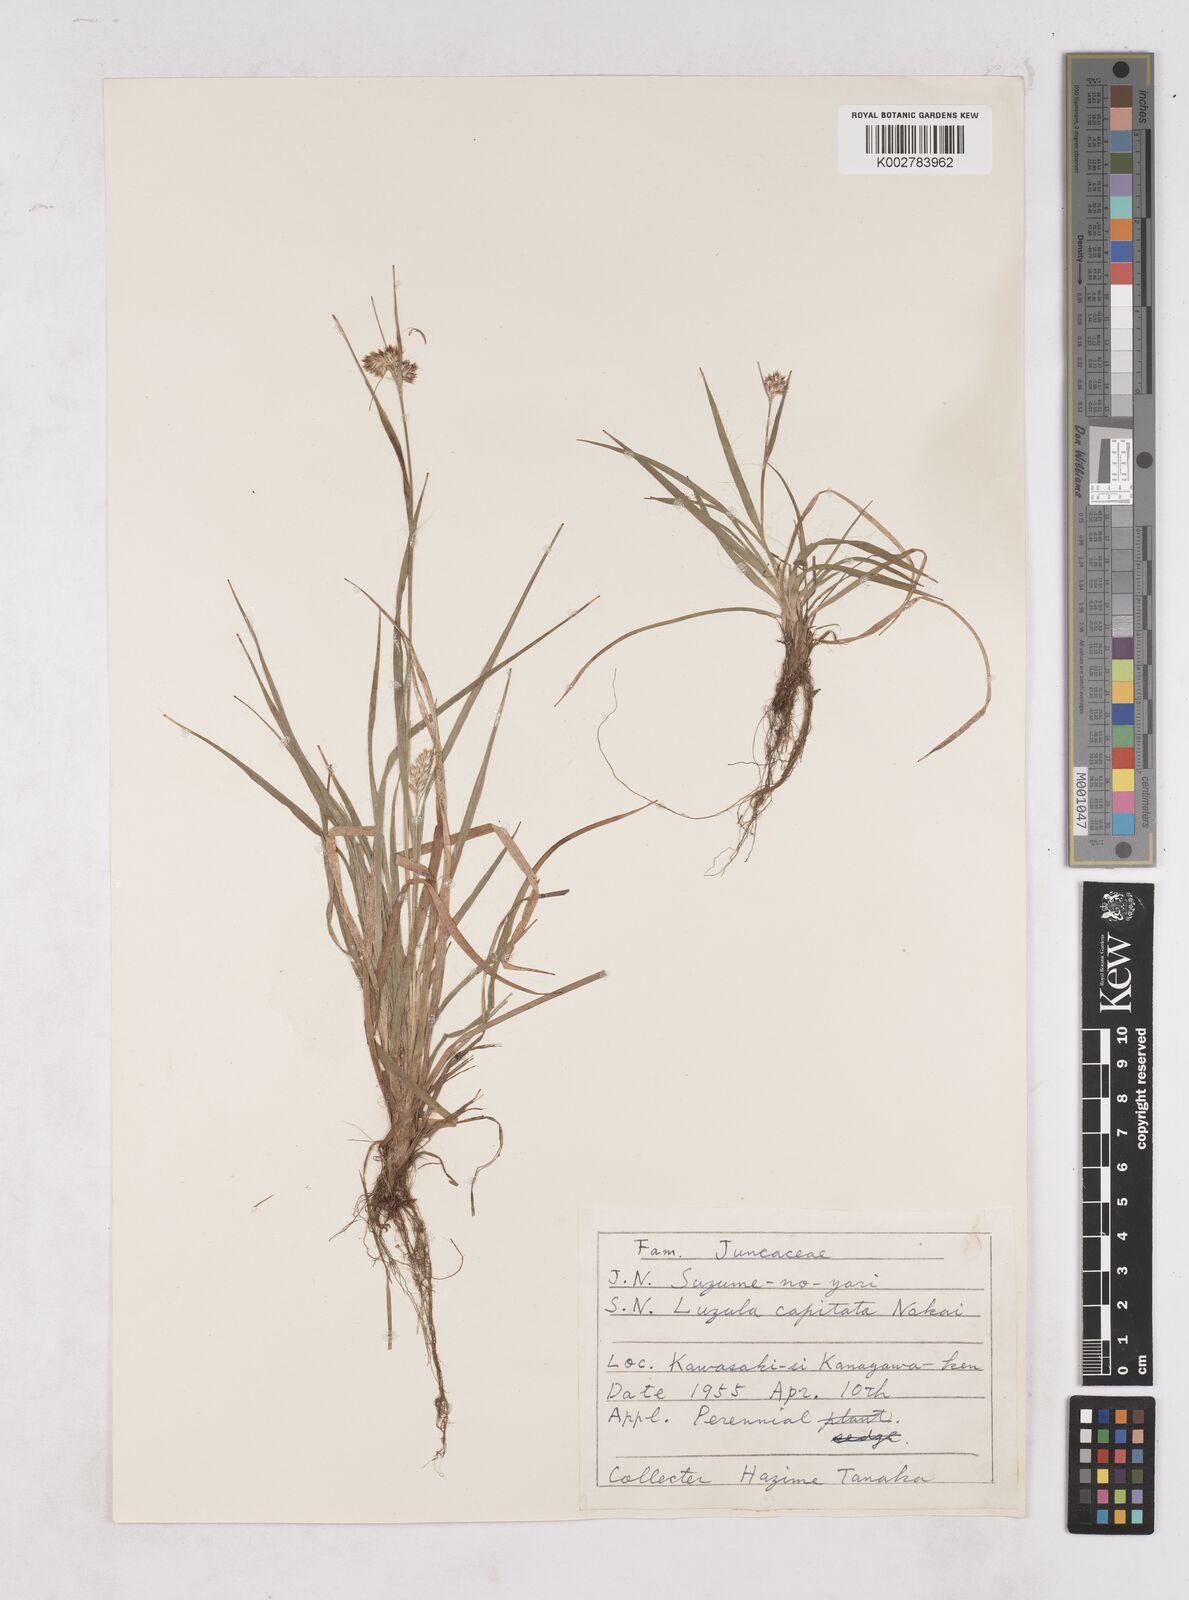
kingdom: Plantae
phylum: Tracheophyta
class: Liliopsida
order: Poales
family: Juncaceae
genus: Luzula
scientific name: Luzula capitata
